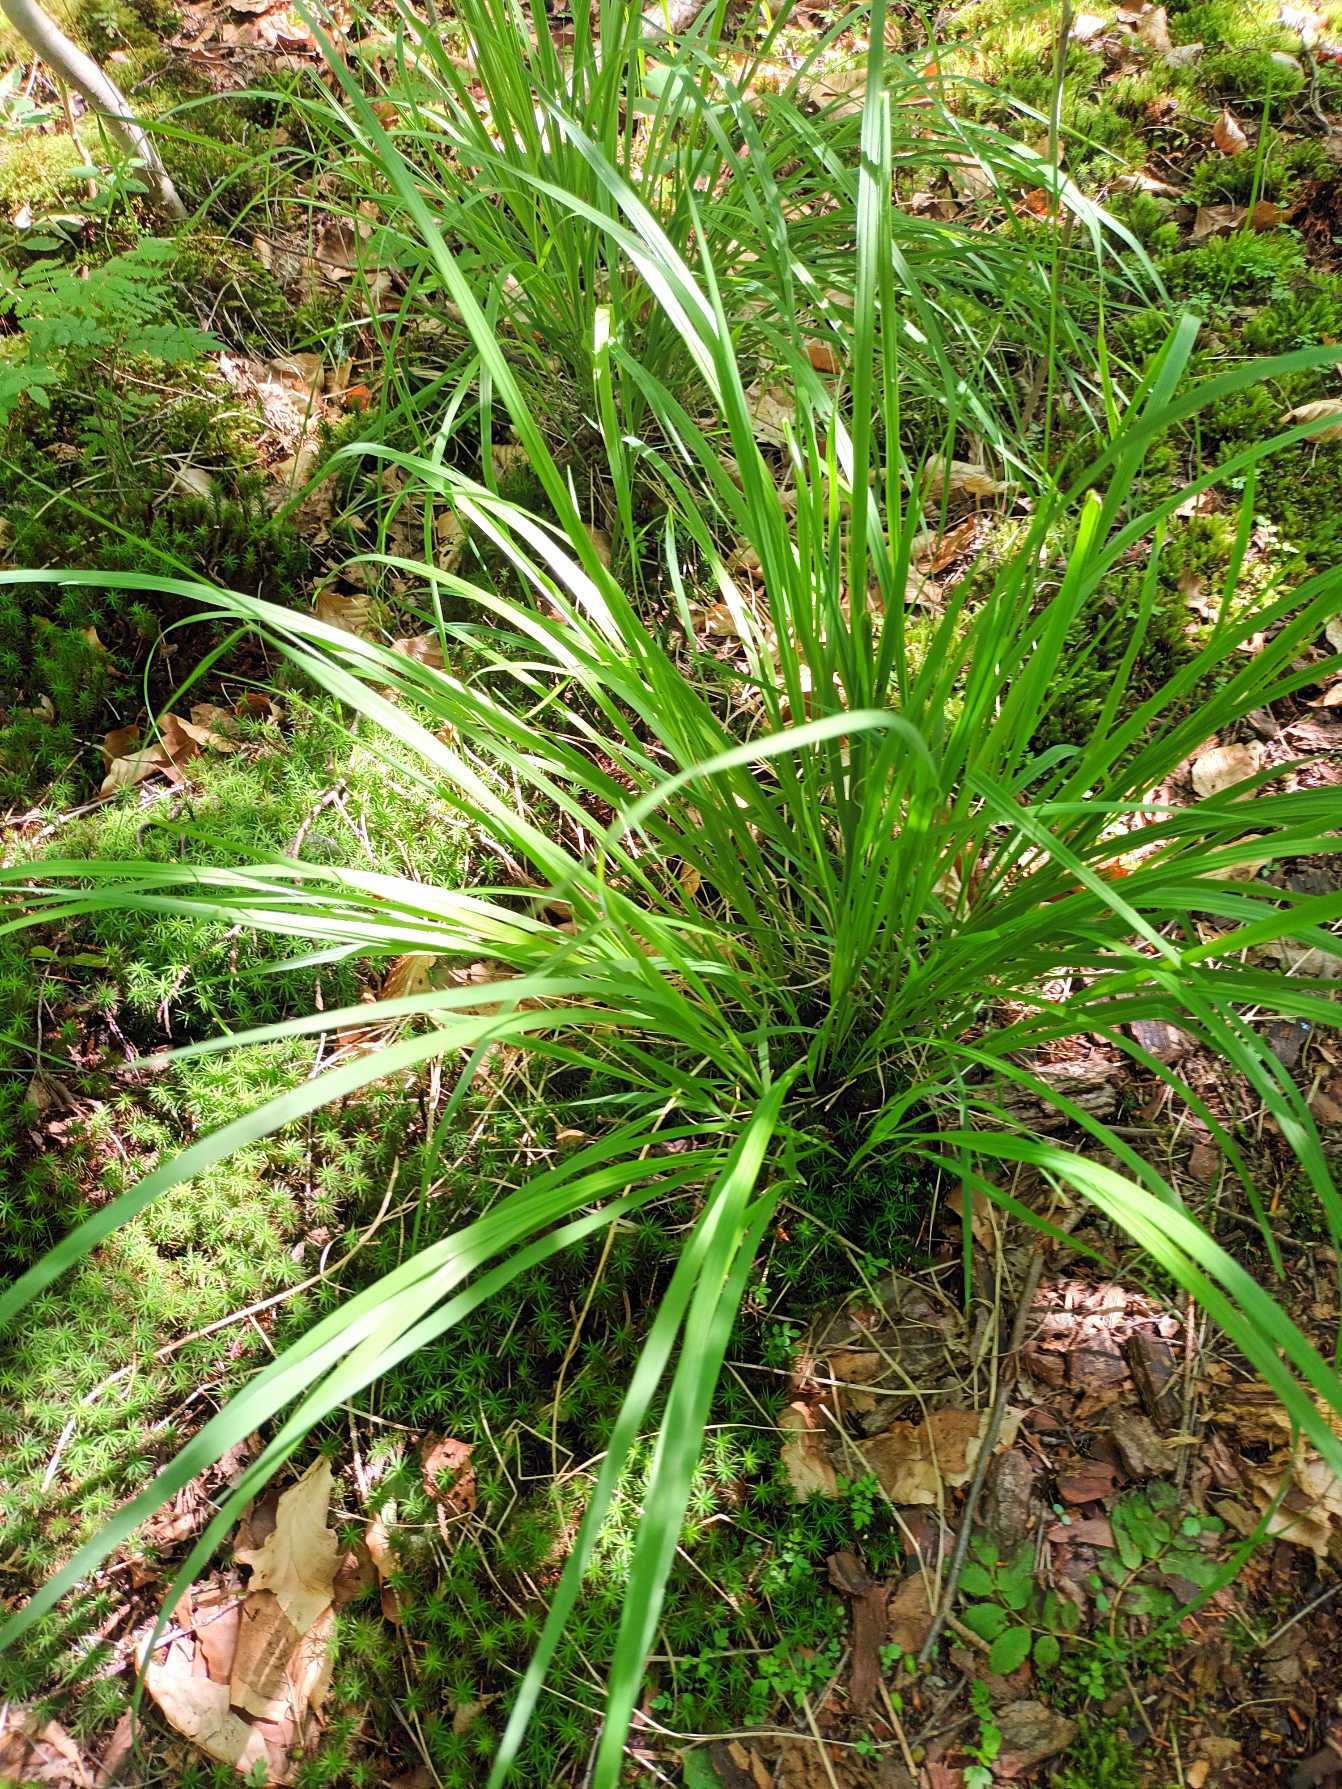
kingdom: Plantae
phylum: Tracheophyta
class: Liliopsida
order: Poales
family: Poaceae
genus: Molinia
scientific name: Molinia caerulea
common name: Blåtop
